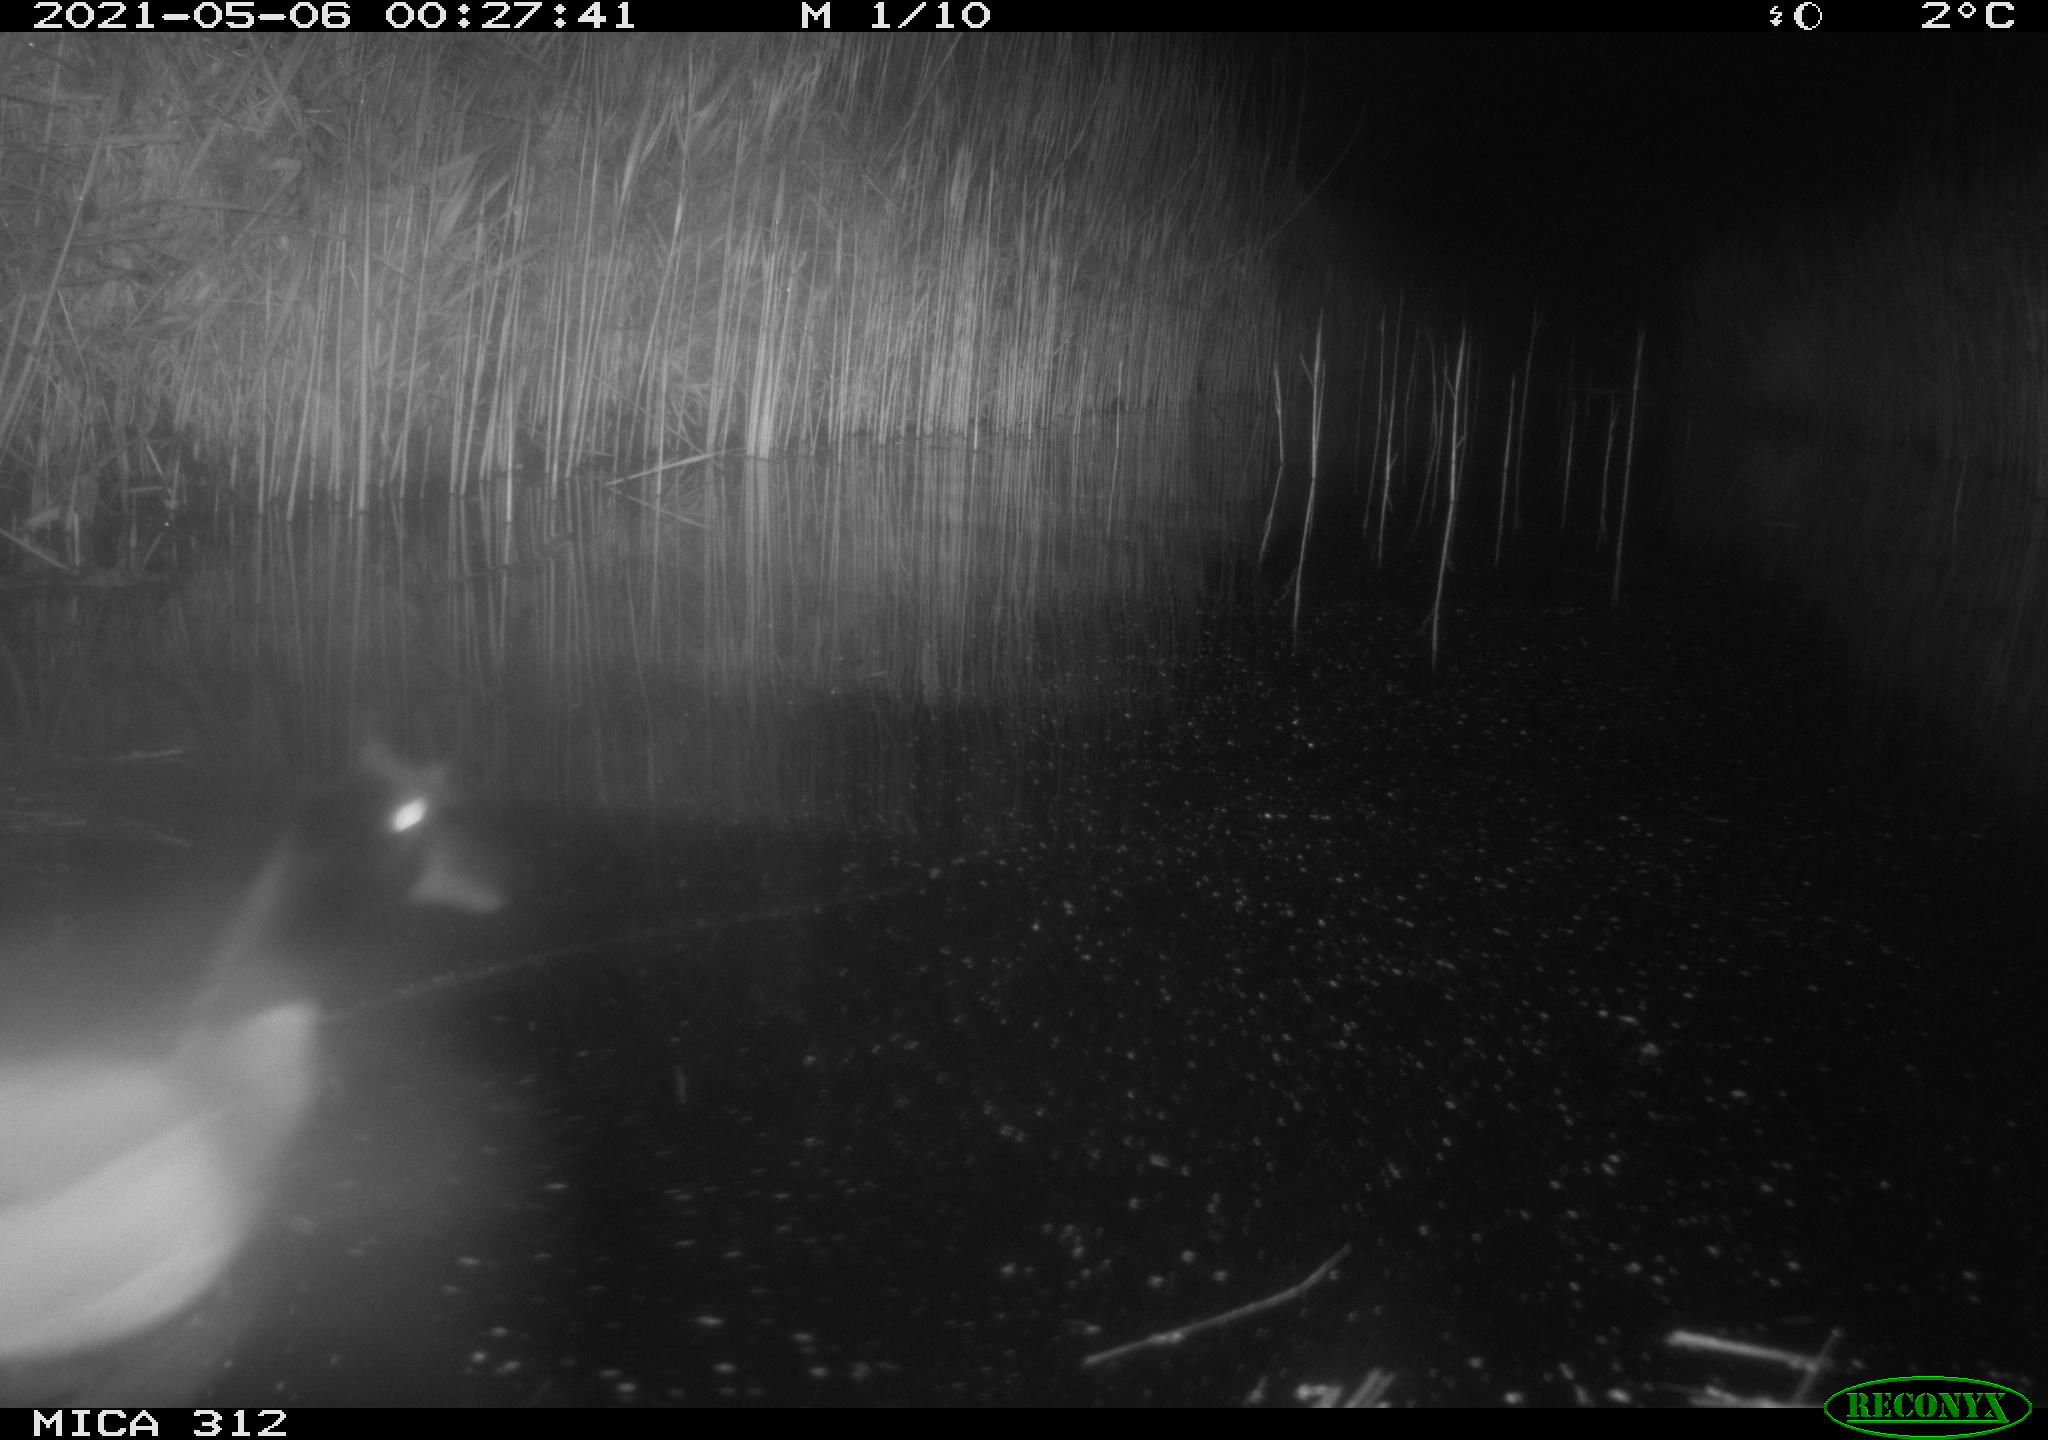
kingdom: Animalia
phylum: Chordata
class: Aves
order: Anseriformes
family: Anatidae
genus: Anas
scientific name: Anas platyrhynchos
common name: Mallard
